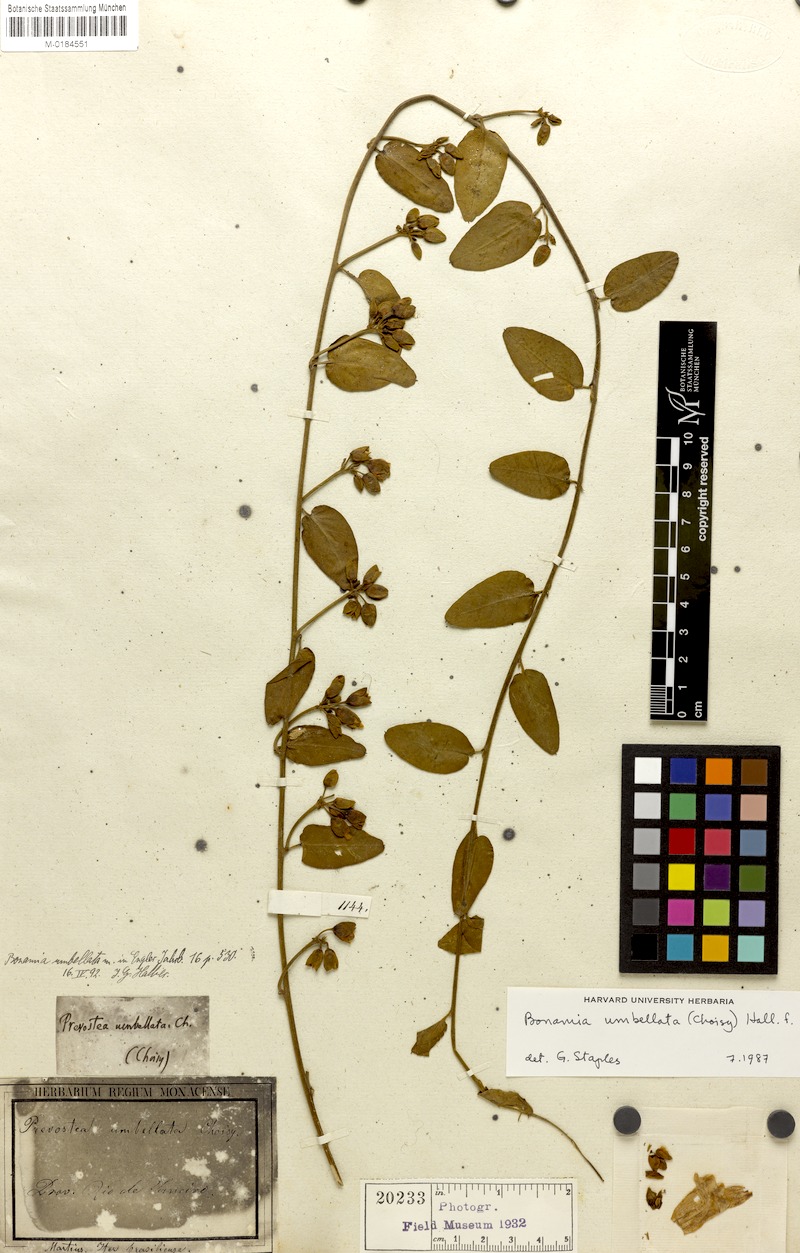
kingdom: Plantae
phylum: Tracheophyta
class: Magnoliopsida
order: Solanales
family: Convolvulaceae
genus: Bonamia
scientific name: Bonamia umbellata
